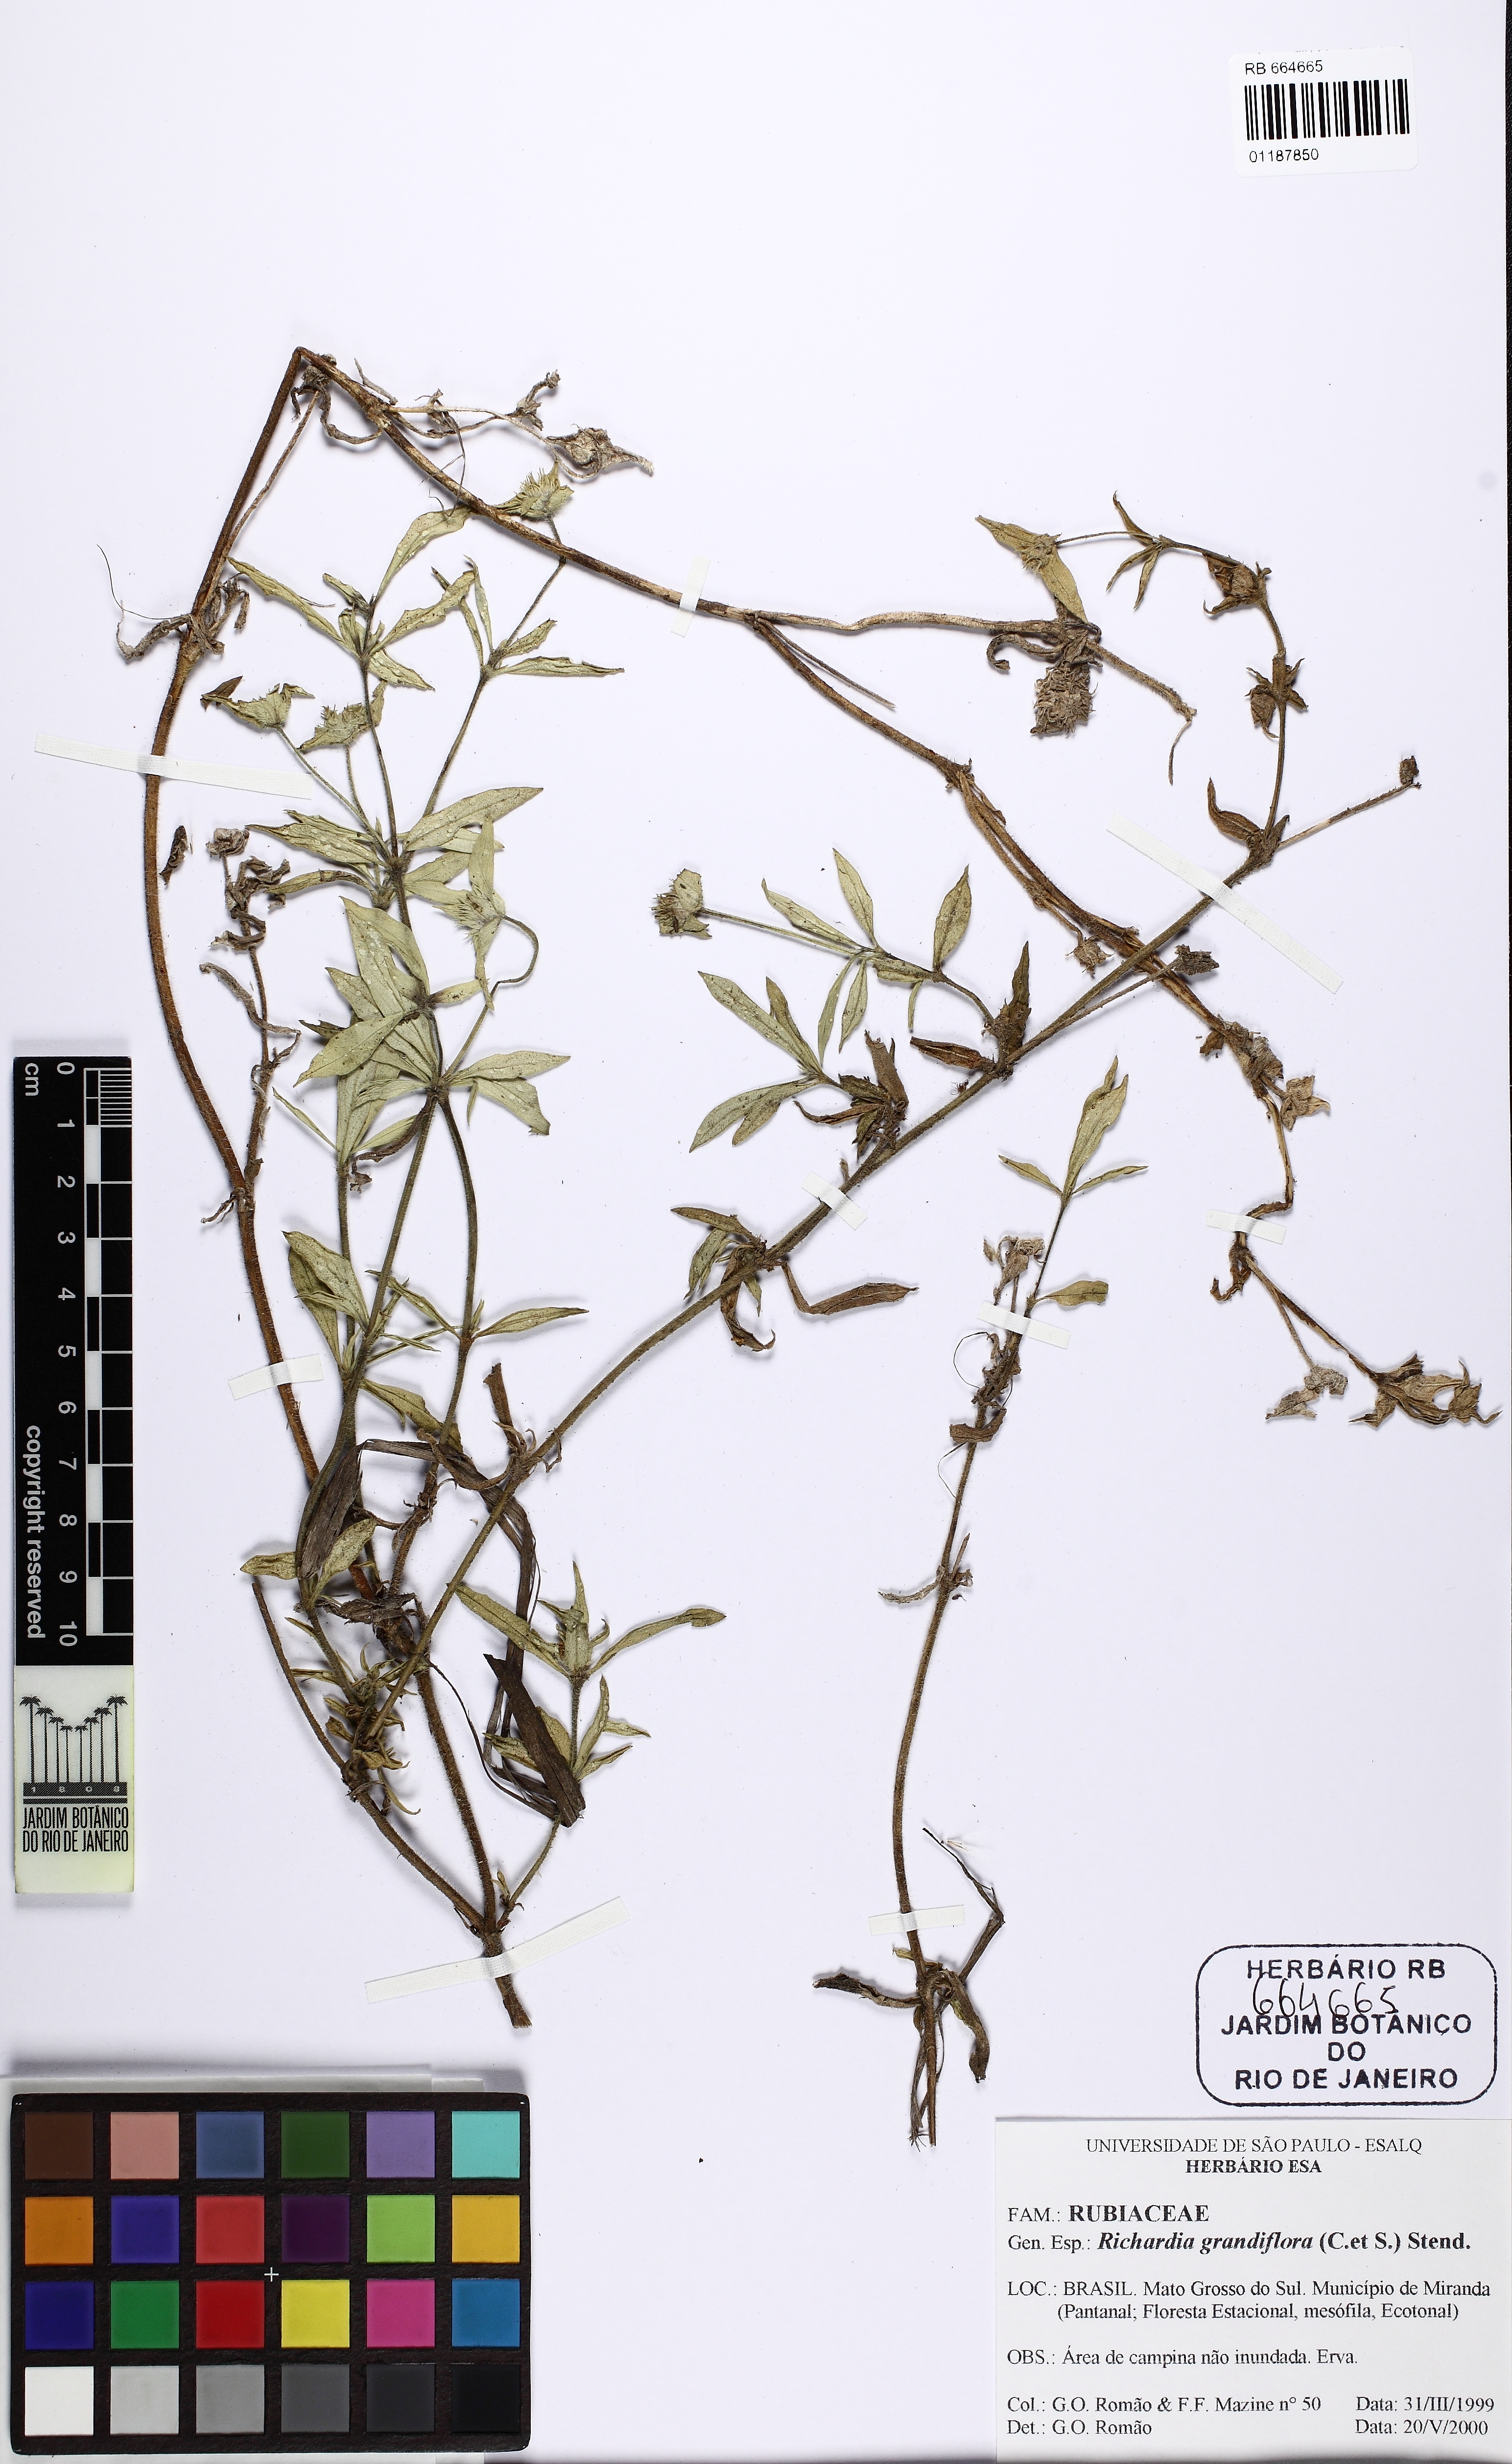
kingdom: Plantae
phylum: Tracheophyta
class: Magnoliopsida
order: Gentianales
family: Rubiaceae
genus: Richardia
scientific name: Richardia grandiflora
